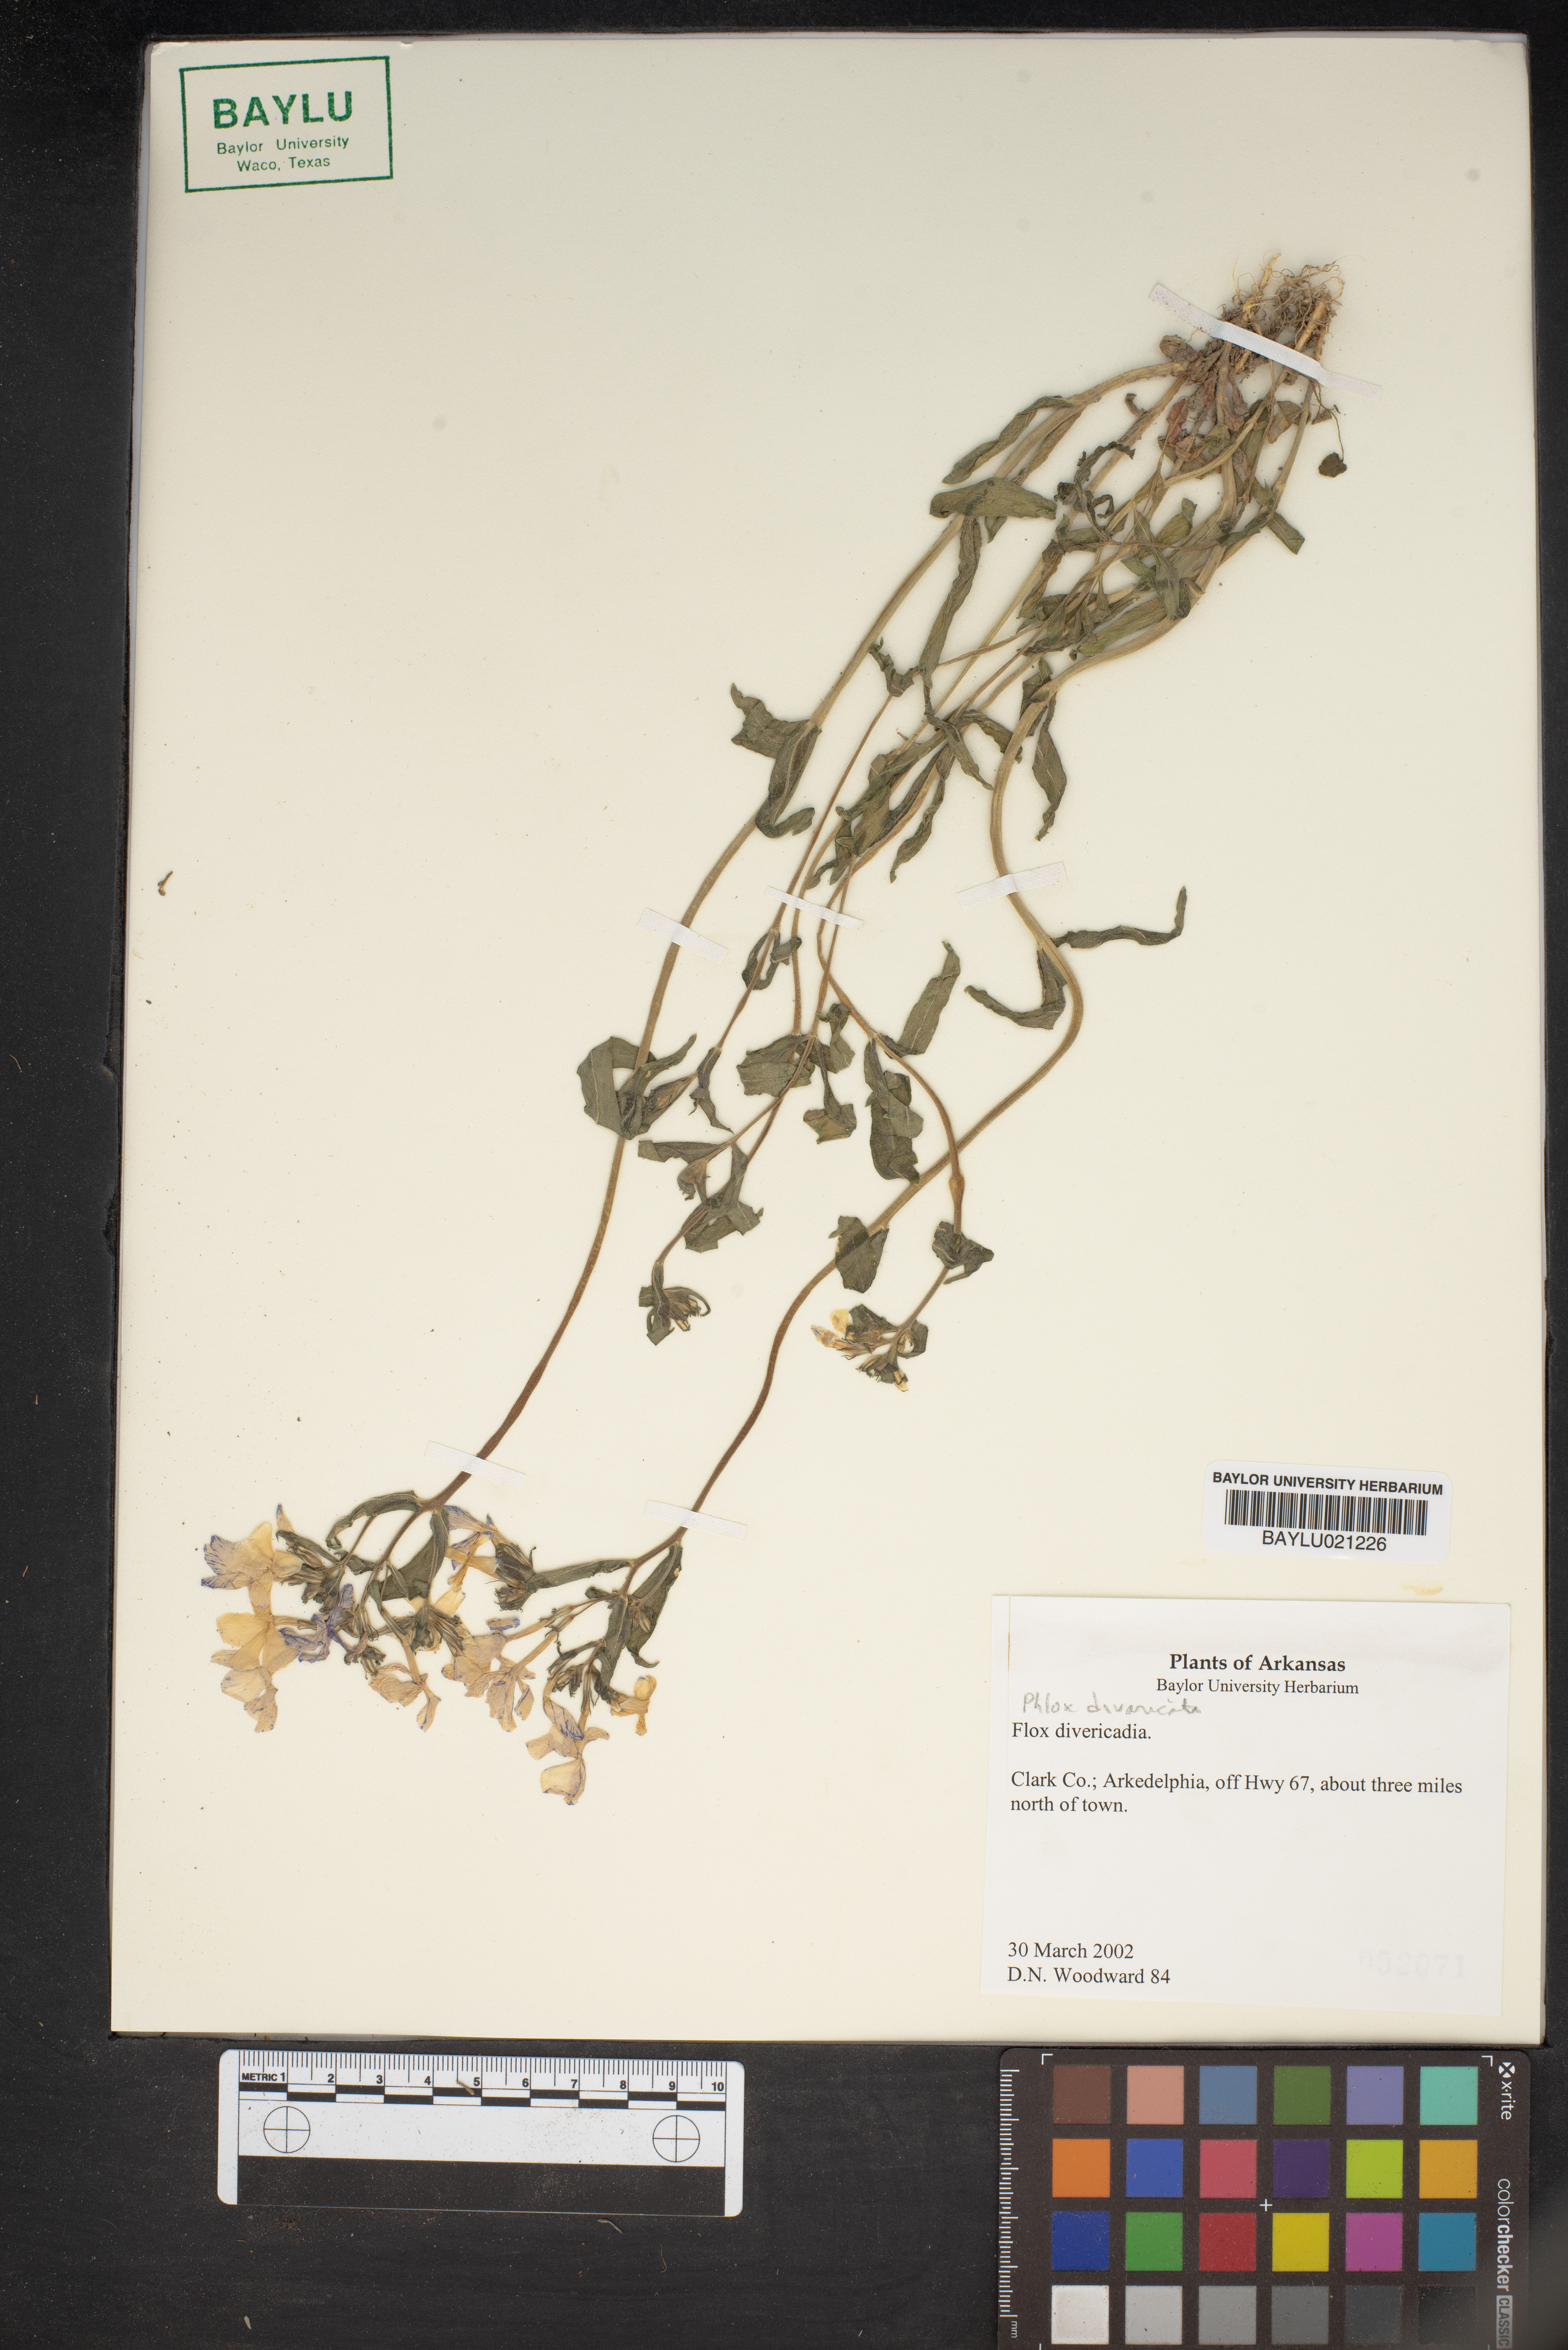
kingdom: Plantae
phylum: Tracheophyta
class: Magnoliopsida
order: Ericales
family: Polemoniaceae
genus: Phlox
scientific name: Phlox divaricata
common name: Blue phlox
